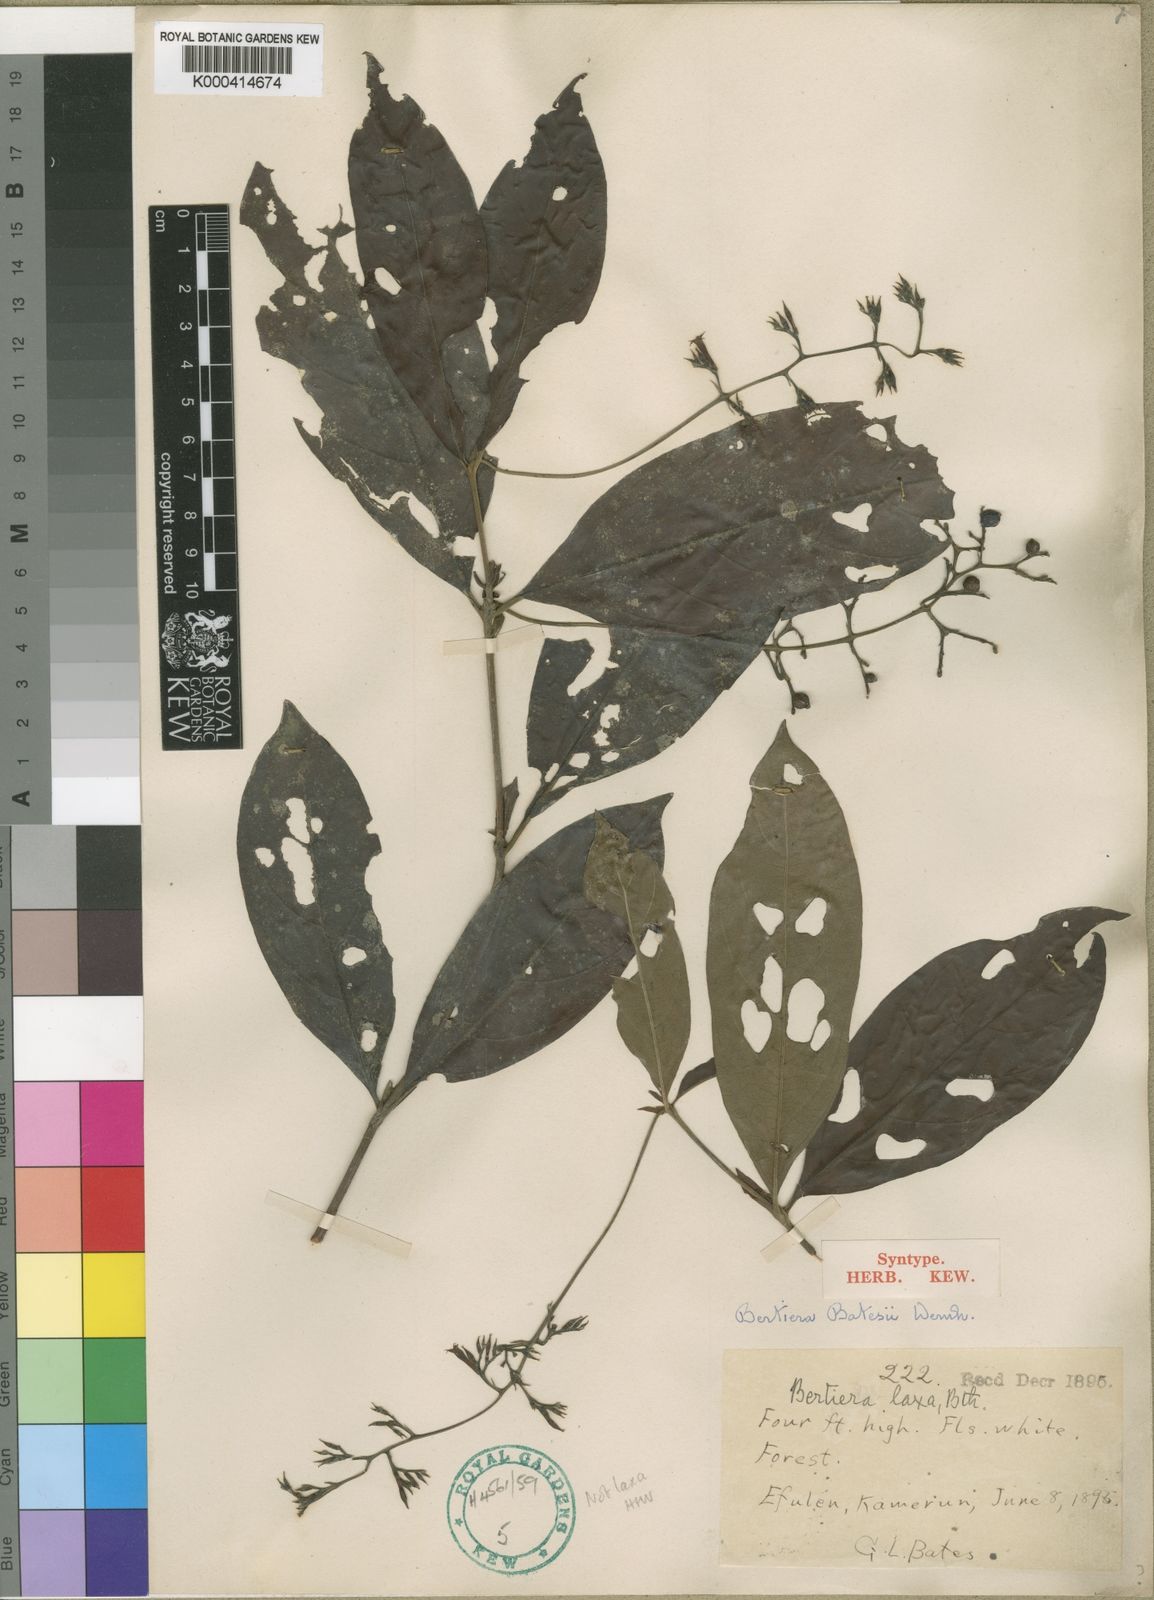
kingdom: Plantae
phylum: Tracheophyta
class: Magnoliopsida
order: Gentianales
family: Rubiaceae
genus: Bertiera
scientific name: Bertiera batesii
